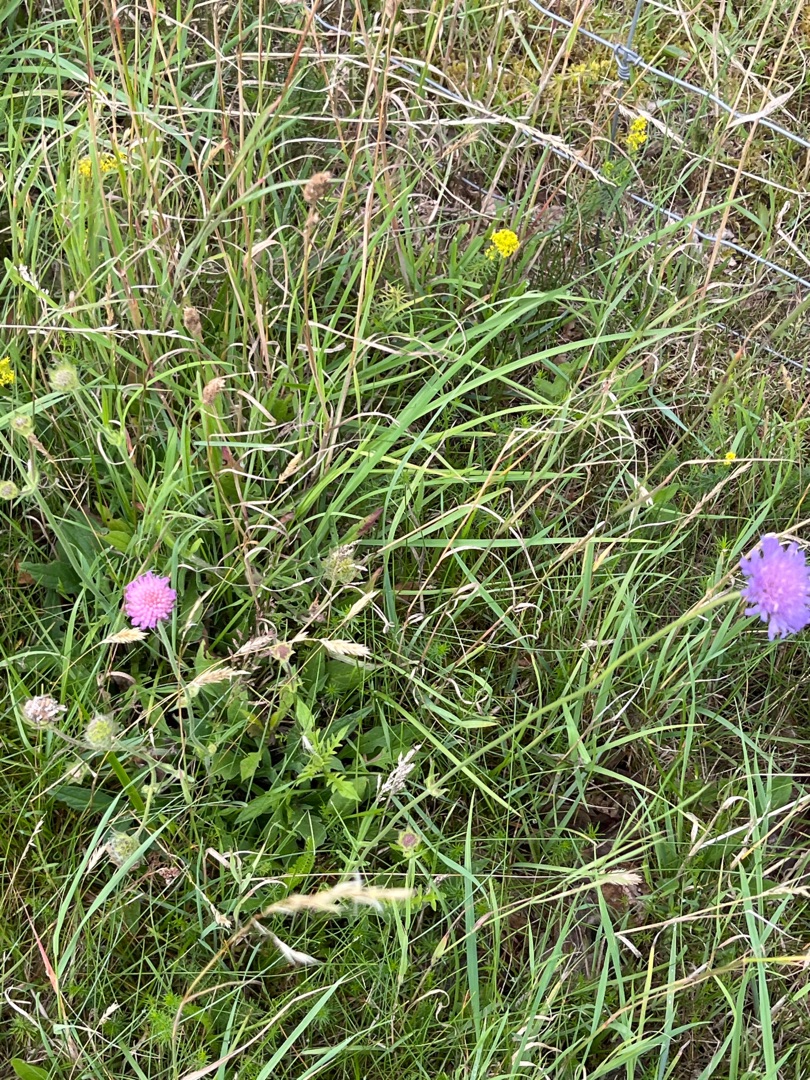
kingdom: Plantae
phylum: Tracheophyta
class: Magnoliopsida
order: Dipsacales
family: Caprifoliaceae
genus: Knautia
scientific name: Knautia arvensis
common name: Blåhat
